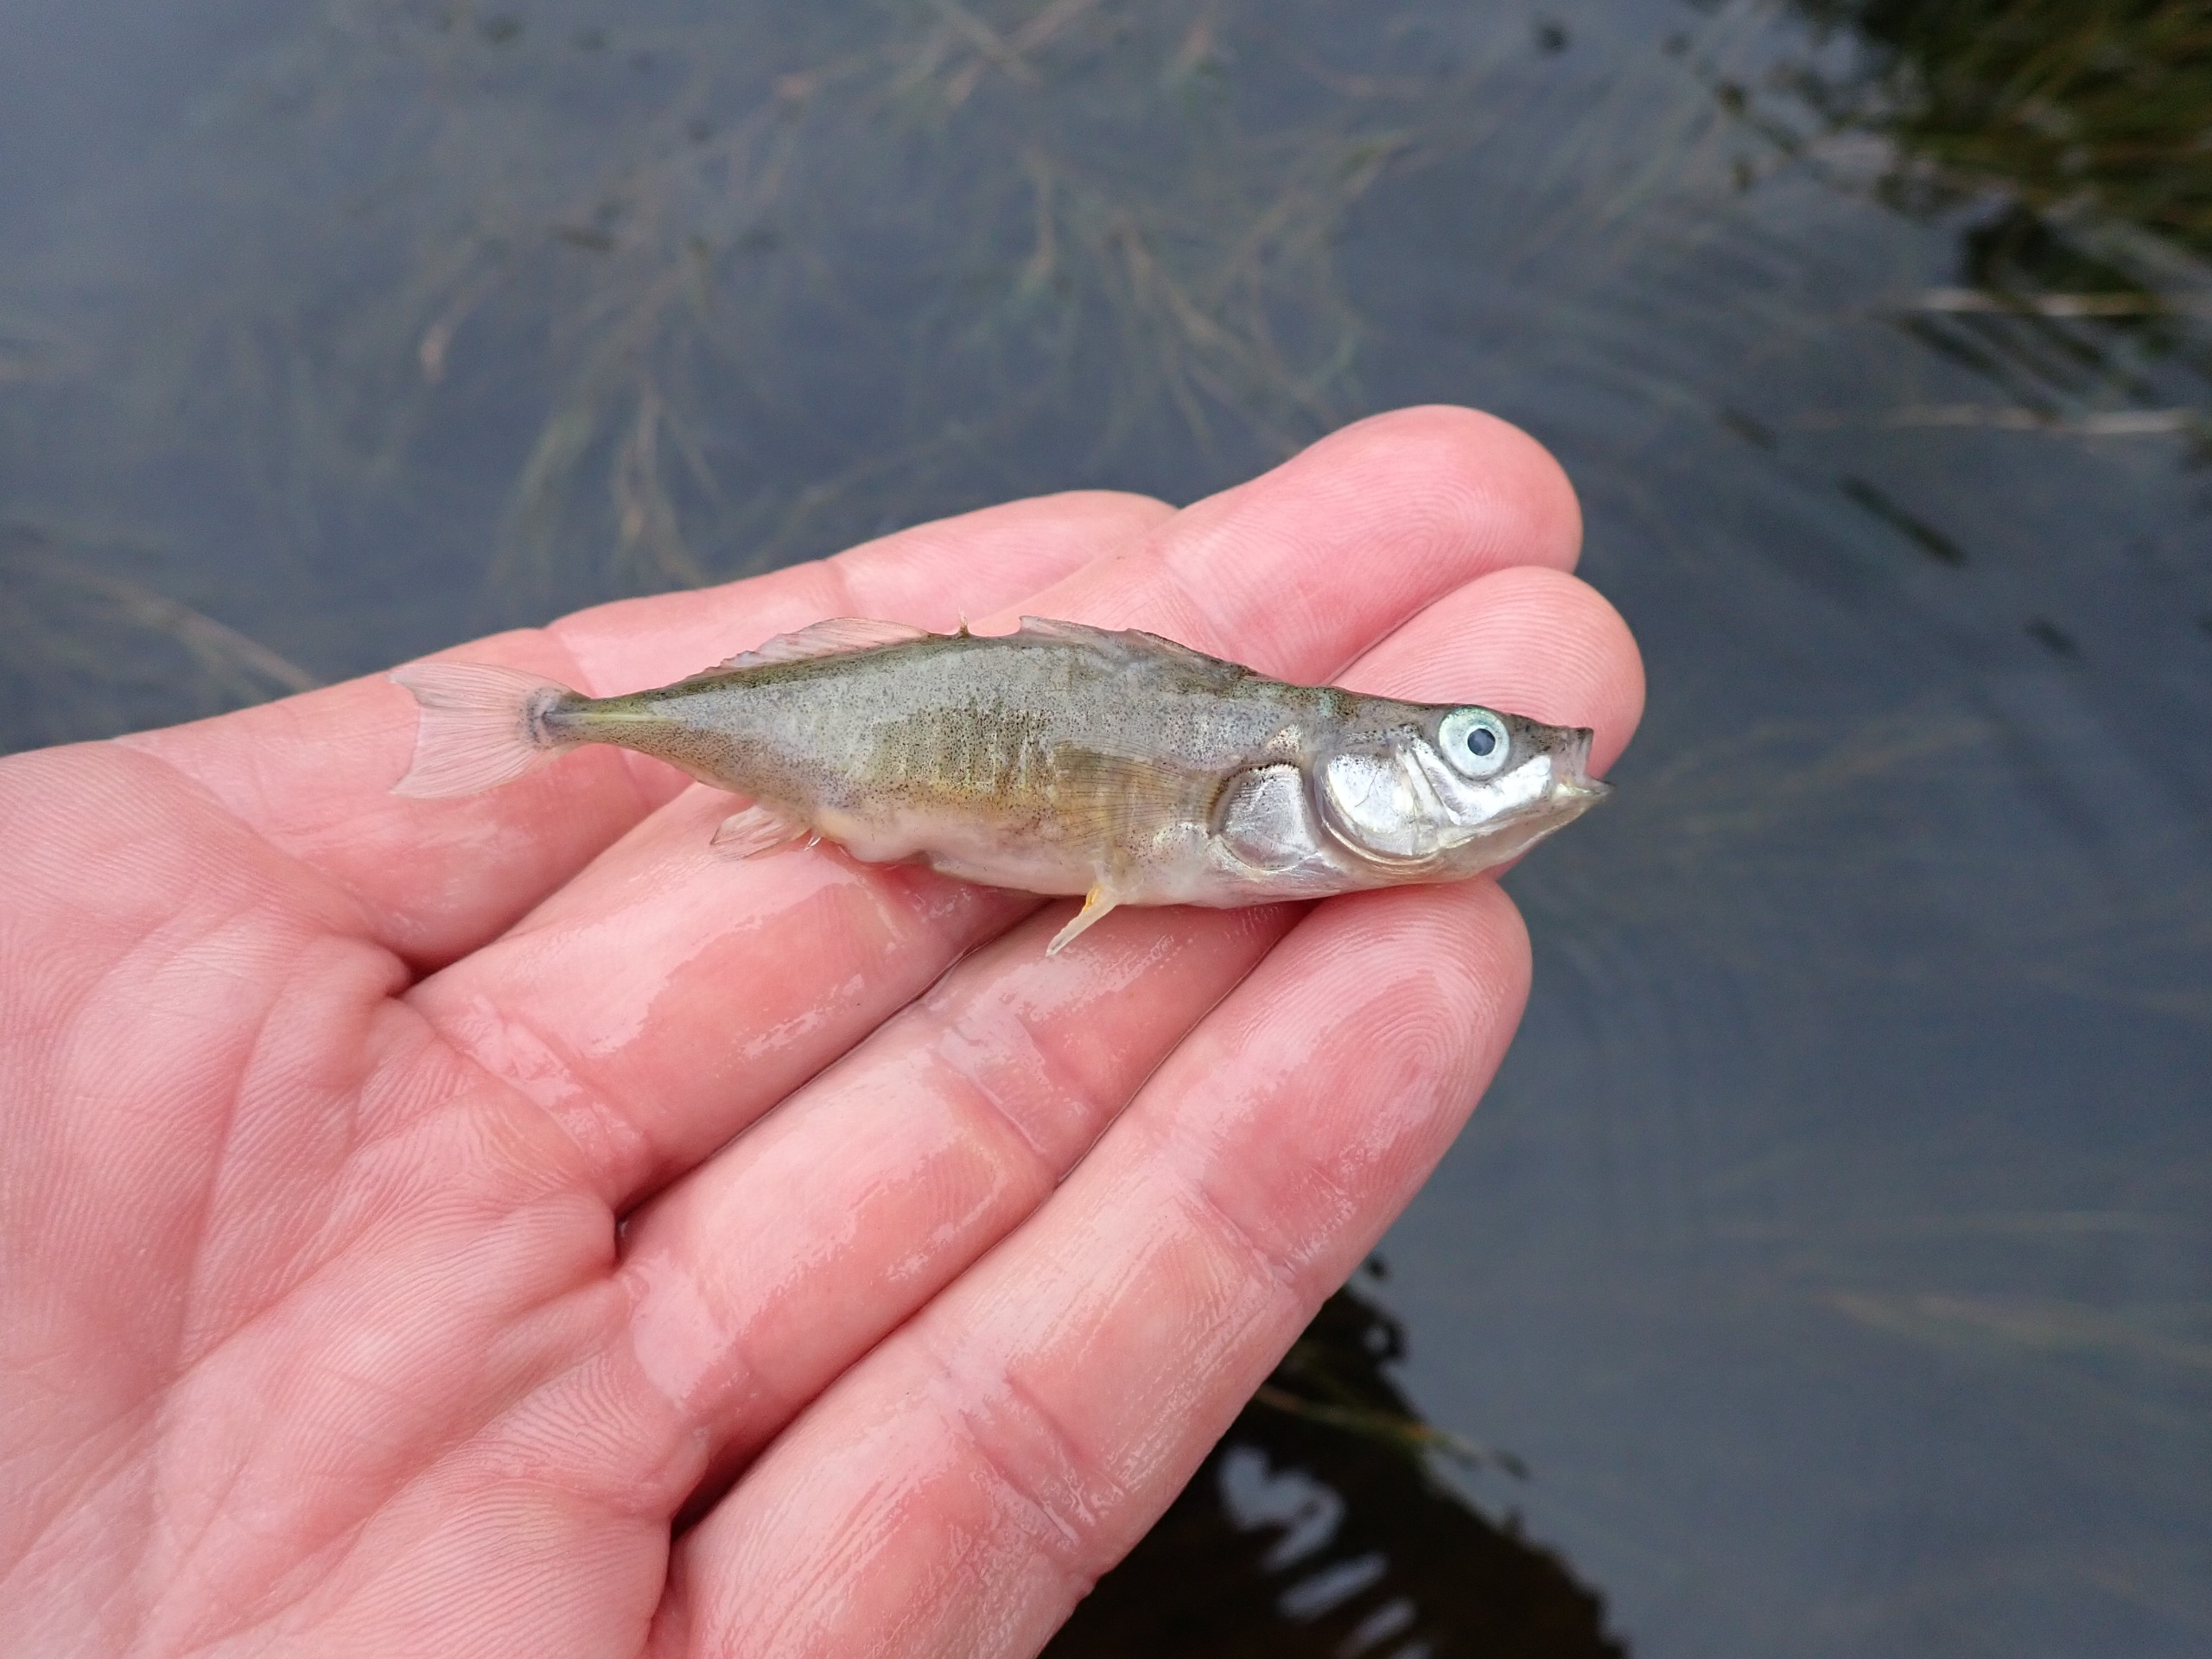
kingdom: Animalia
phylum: Chordata
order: Gasterosteiformes
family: Gasterosteidae
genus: Gasterosteus
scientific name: Gasterosteus aculeatus
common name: Trepigget hundestejle
